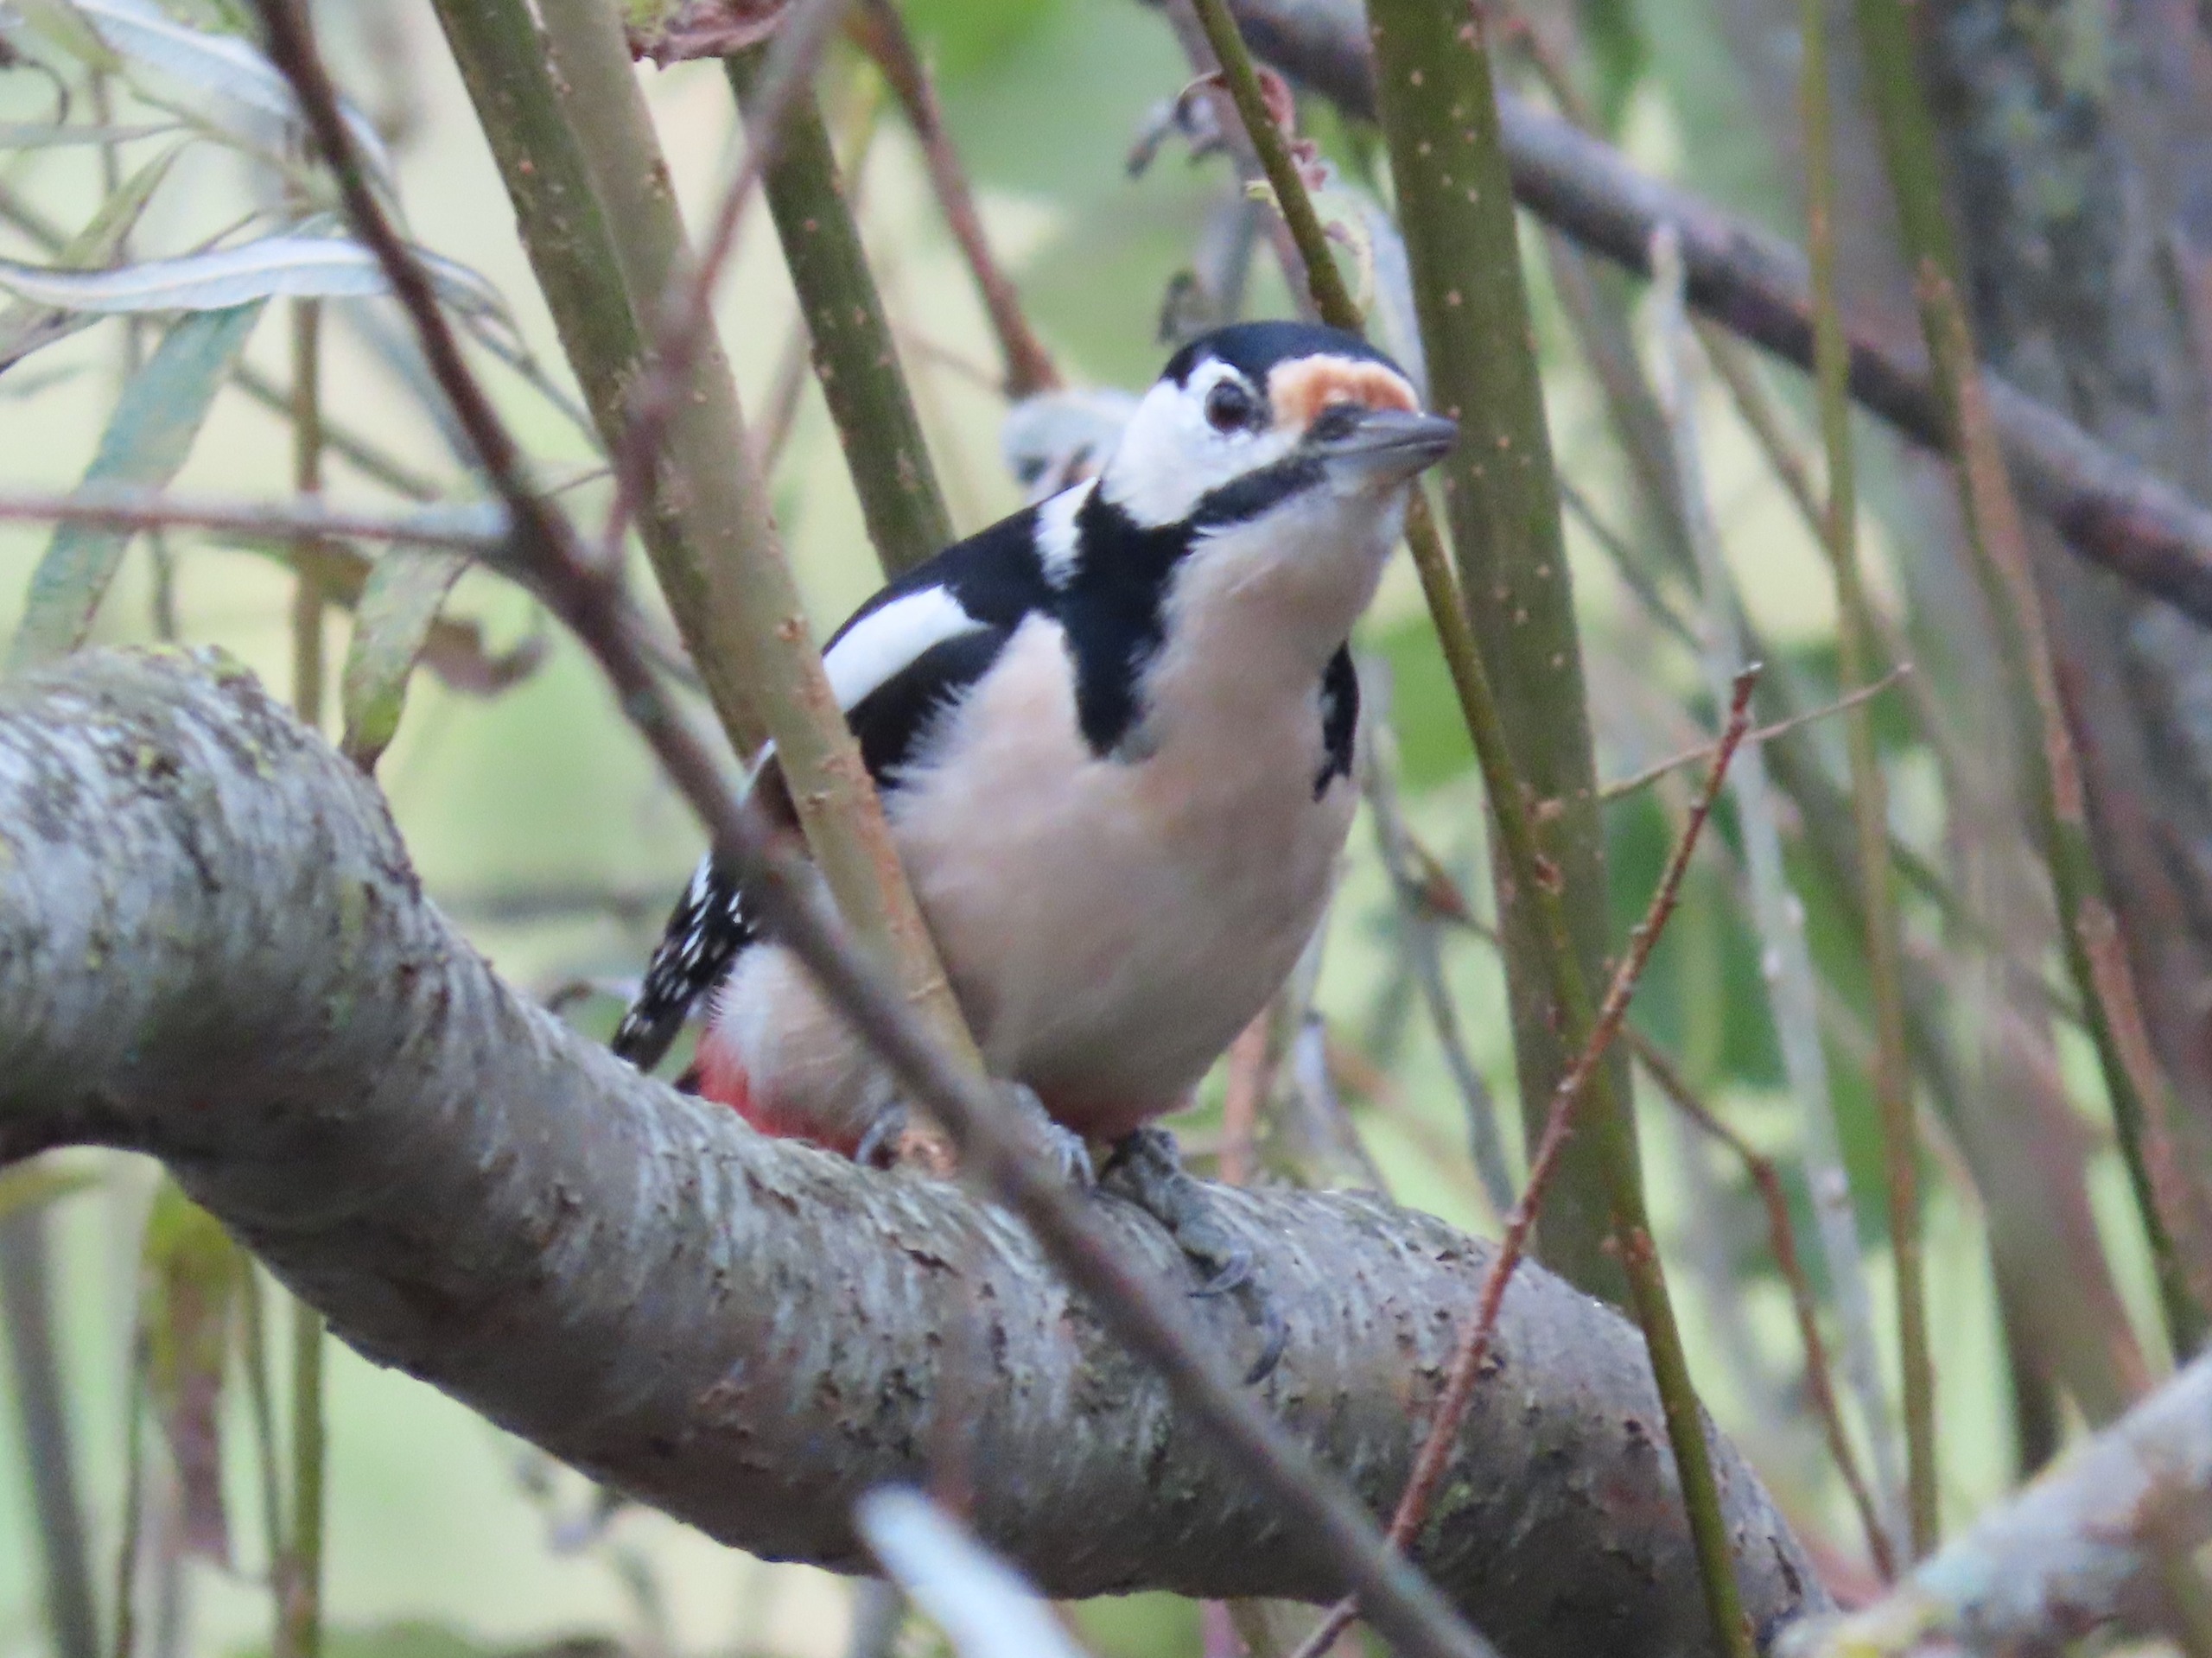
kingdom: Animalia
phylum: Chordata
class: Aves
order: Piciformes
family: Picidae
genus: Dendrocopos
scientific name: Dendrocopos major
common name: Stor flagspætte
